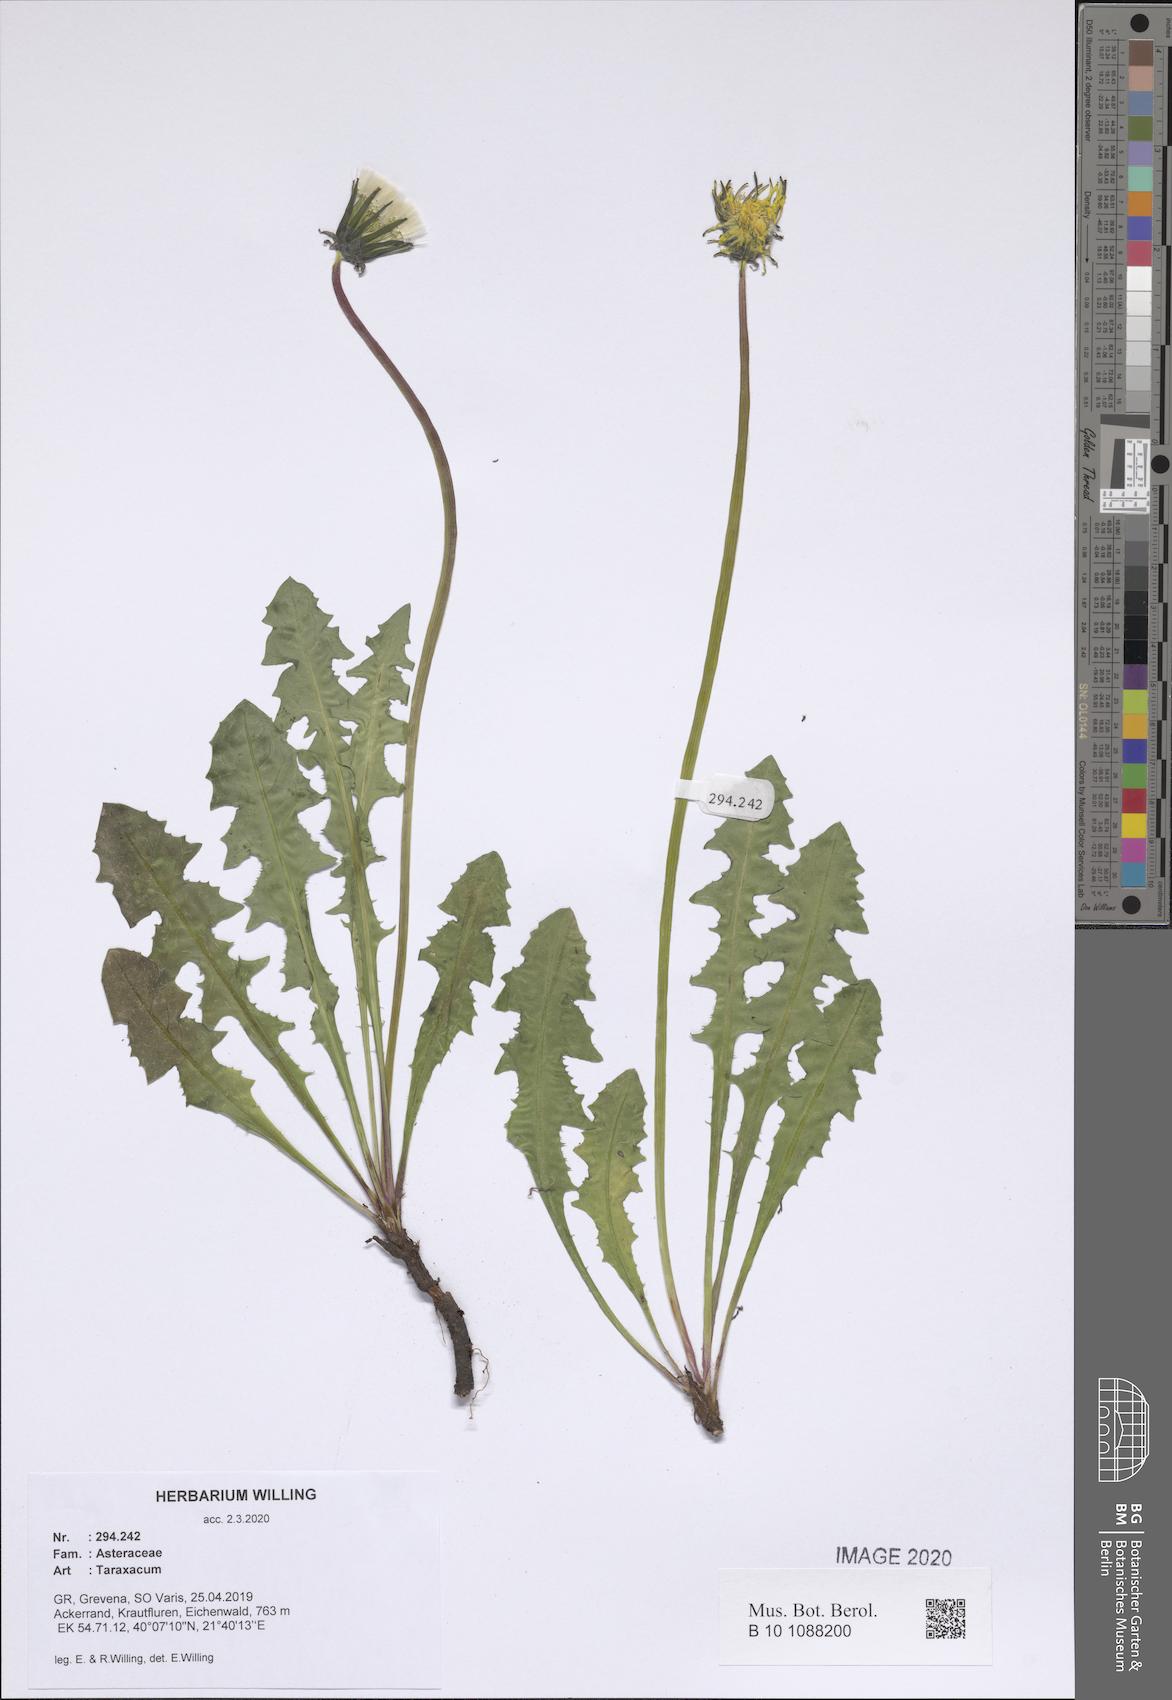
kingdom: Plantae
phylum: Tracheophyta
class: Magnoliopsida
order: Asterales
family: Asteraceae
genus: Taraxacum
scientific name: Taraxacum
